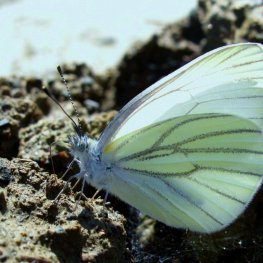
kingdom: Animalia
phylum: Arthropoda
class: Insecta
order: Lepidoptera
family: Pieridae
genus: Pieris
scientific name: Pieris oleracea
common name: Mustard White
